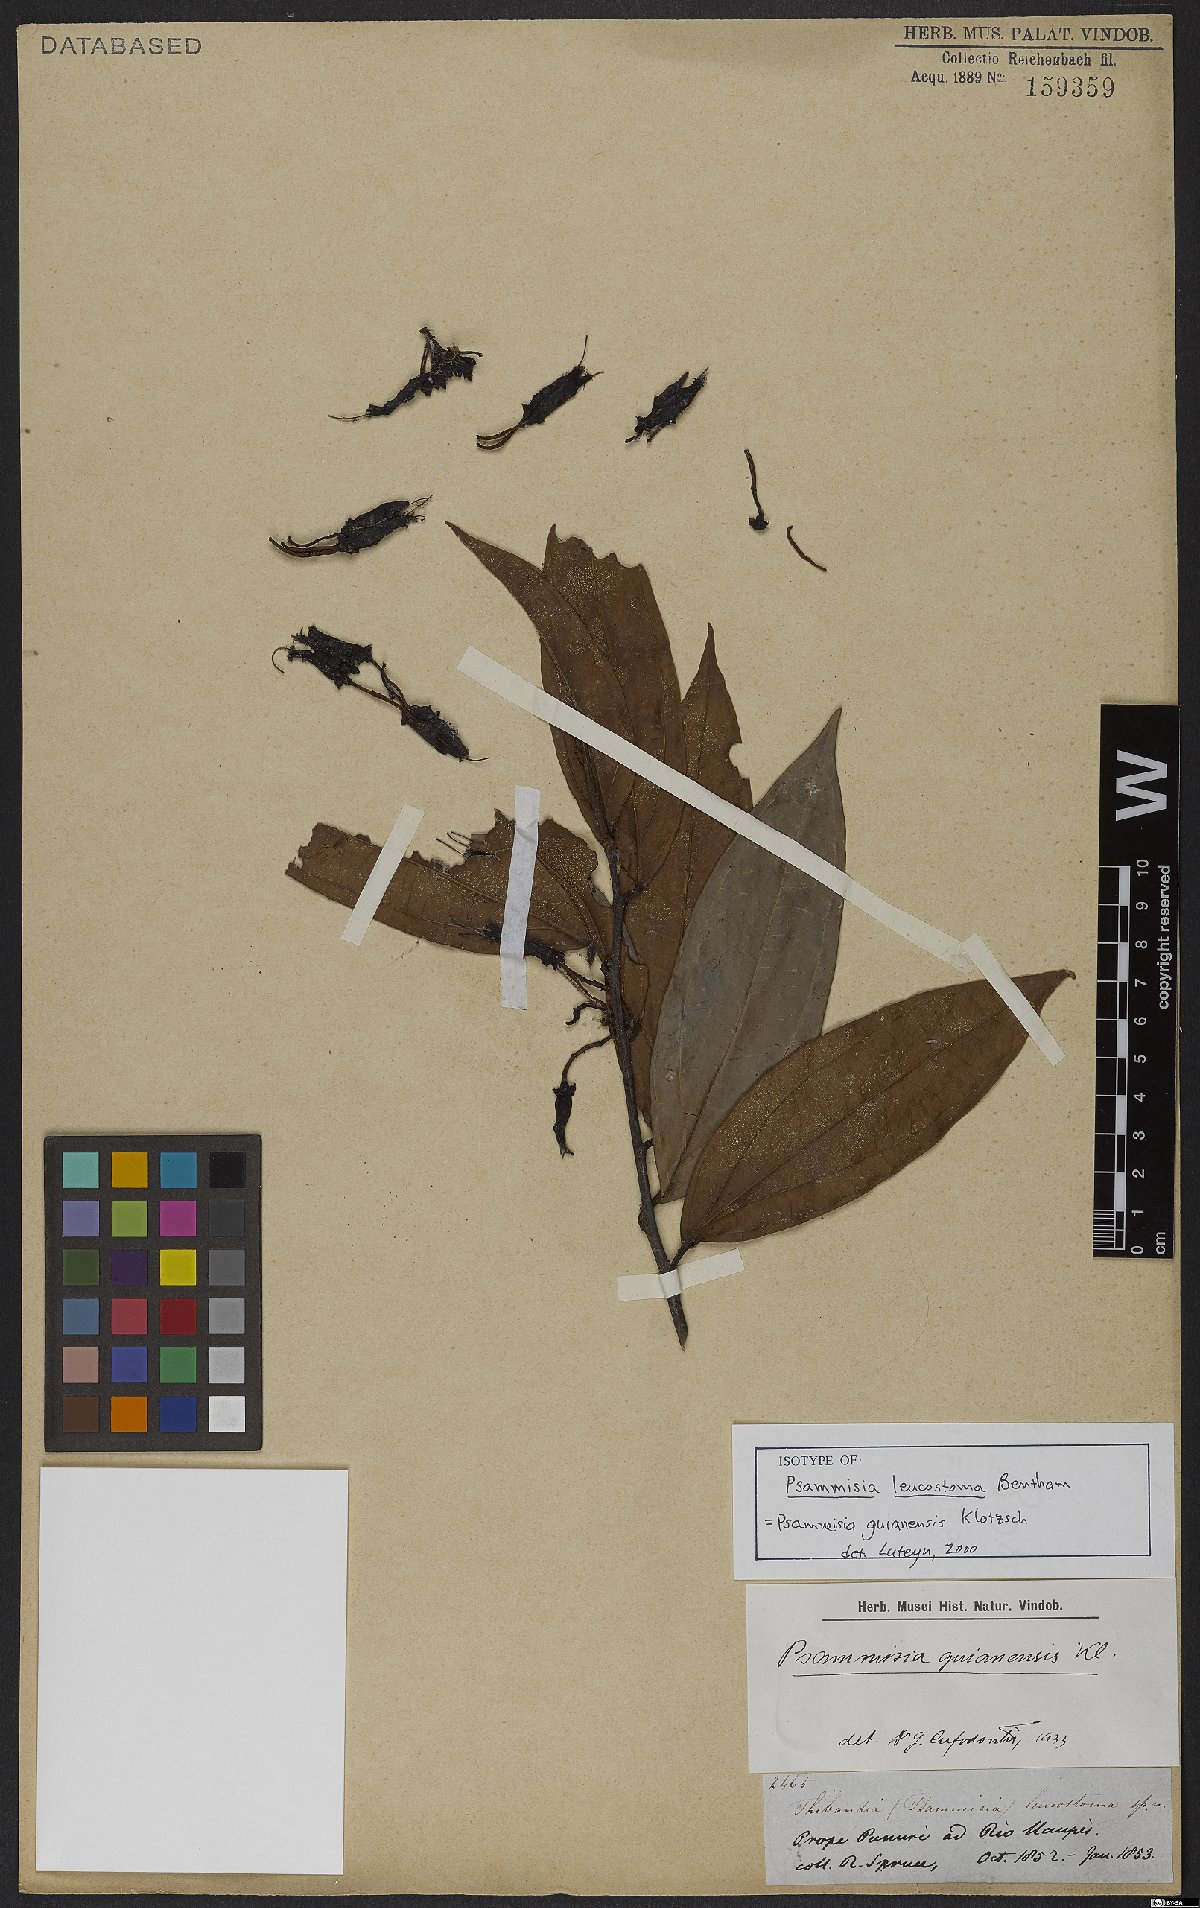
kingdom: Plantae
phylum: Tracheophyta
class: Magnoliopsida
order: Ericales
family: Ericaceae
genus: Psammisia
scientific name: Psammisia coarctata
